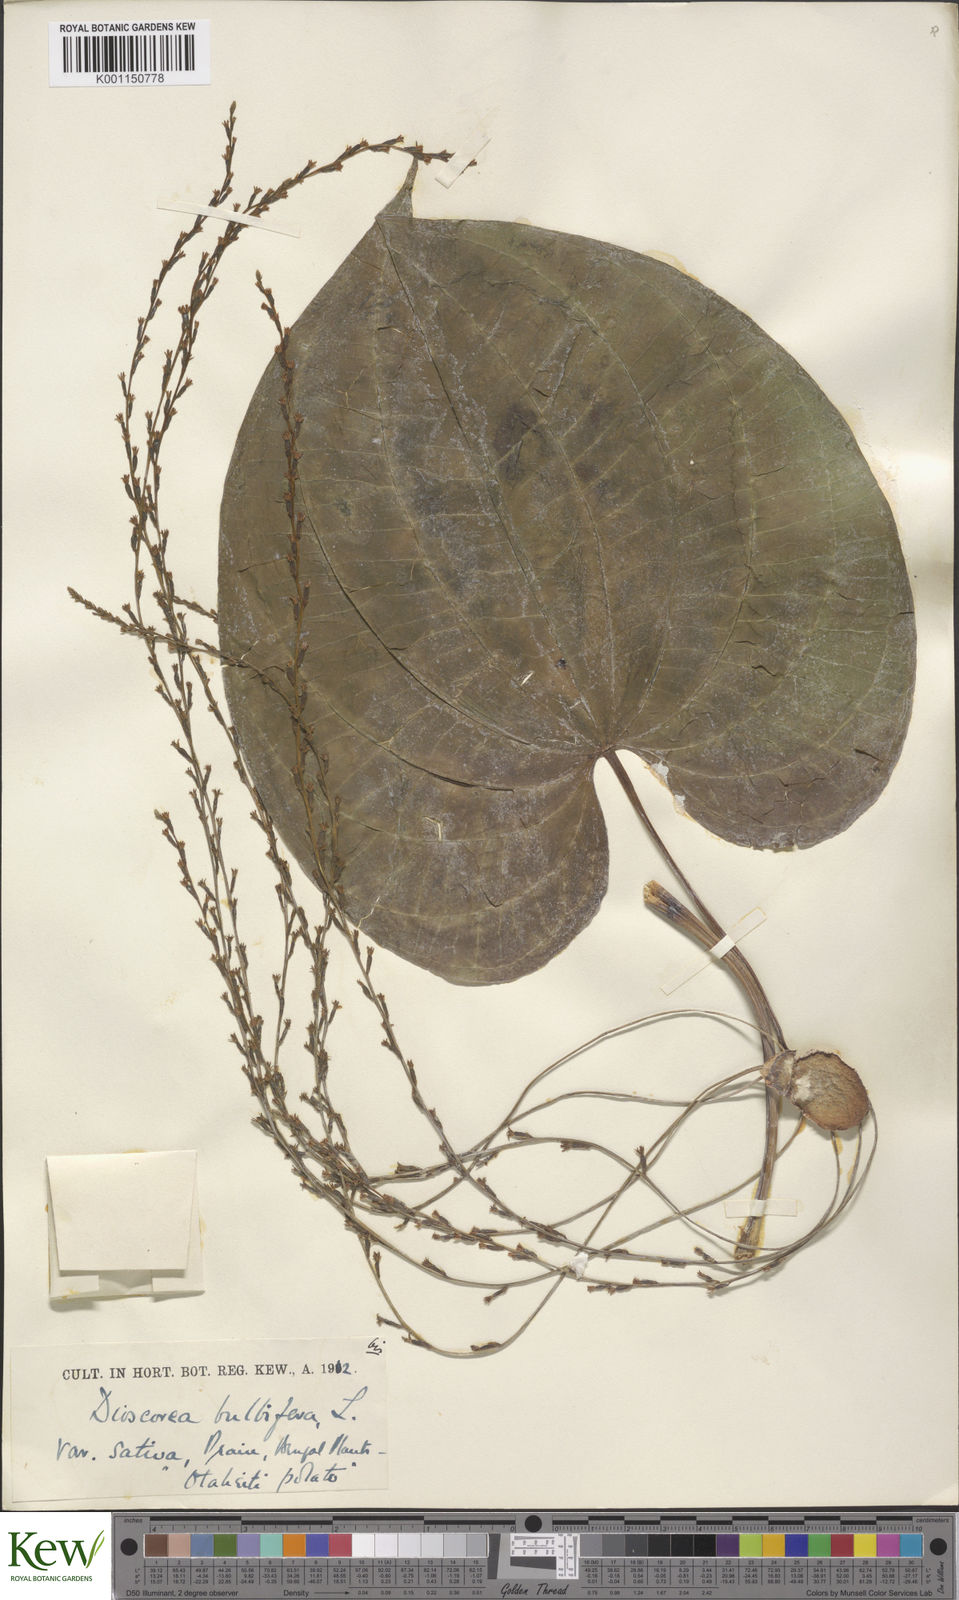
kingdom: Plantae
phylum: Tracheophyta
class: Liliopsida
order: Dioscoreales
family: Dioscoreaceae
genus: Dioscorea
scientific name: Dioscorea bulbifera
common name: Air yam
